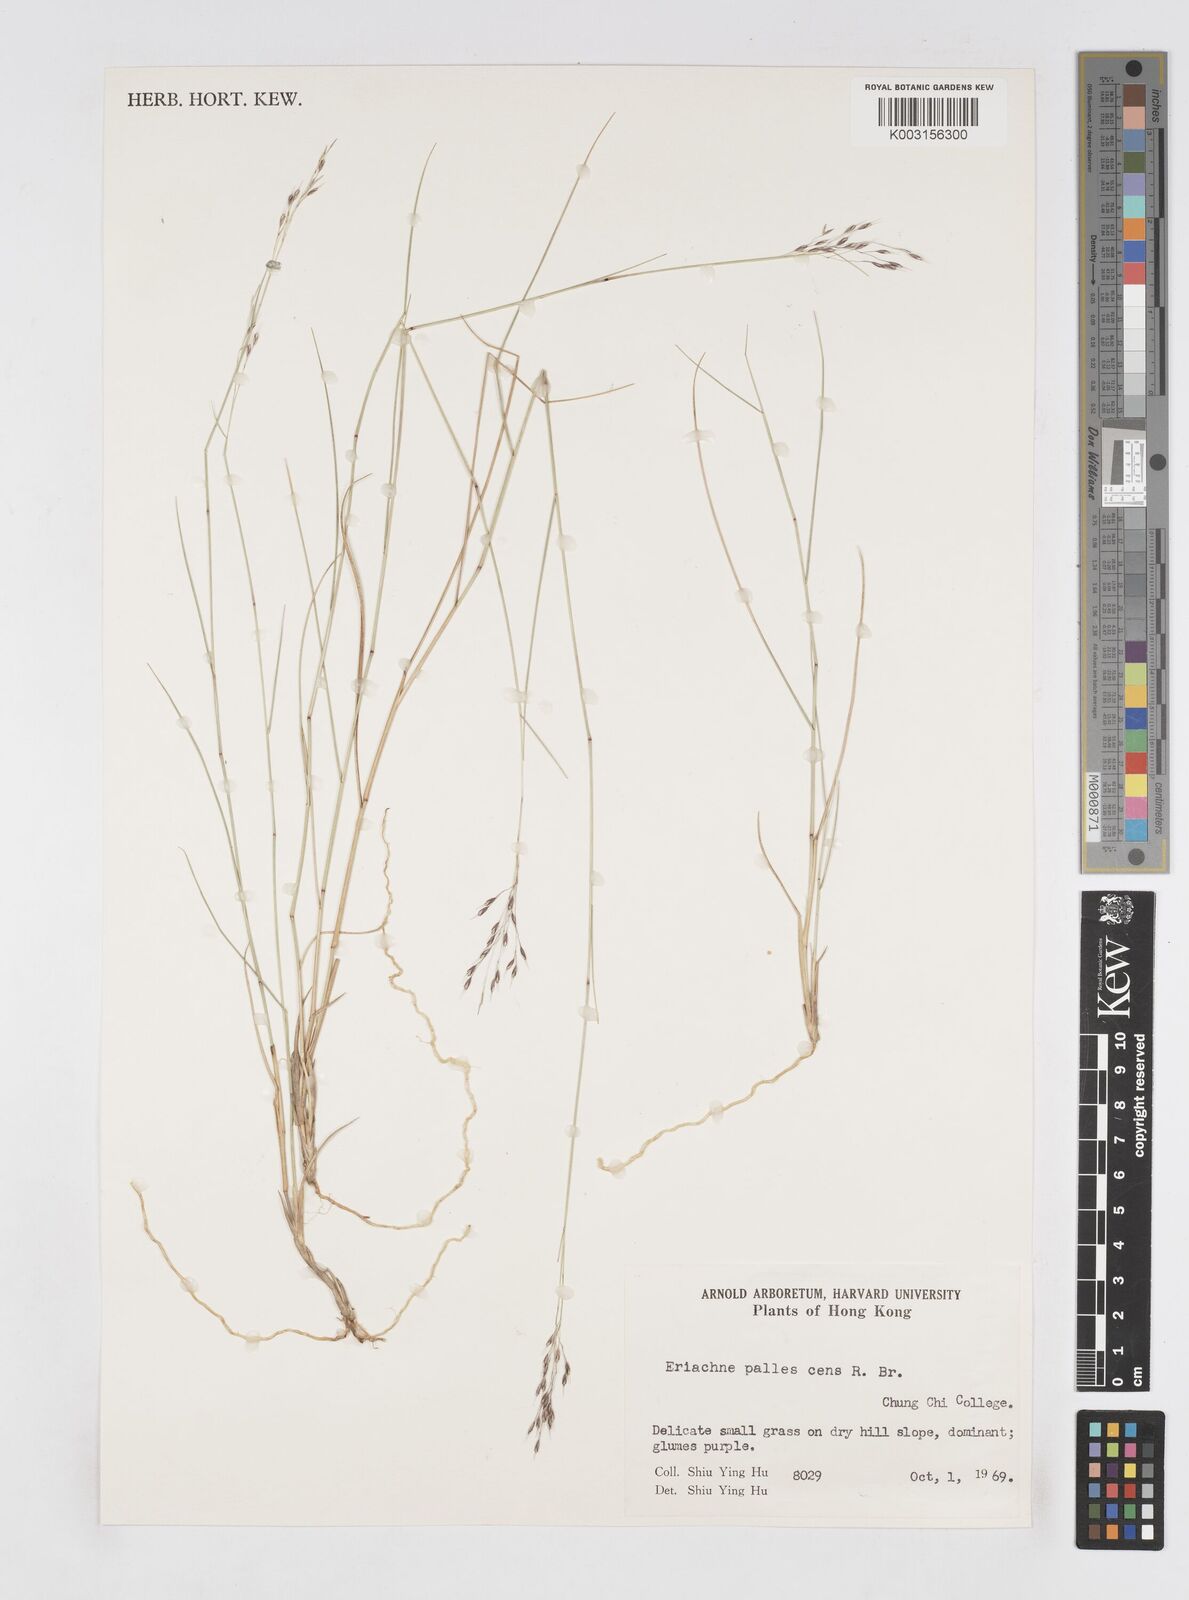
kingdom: Plantae
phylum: Tracheophyta
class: Liliopsida
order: Poales
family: Poaceae
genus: Eriachne
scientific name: Eriachne pallescens
